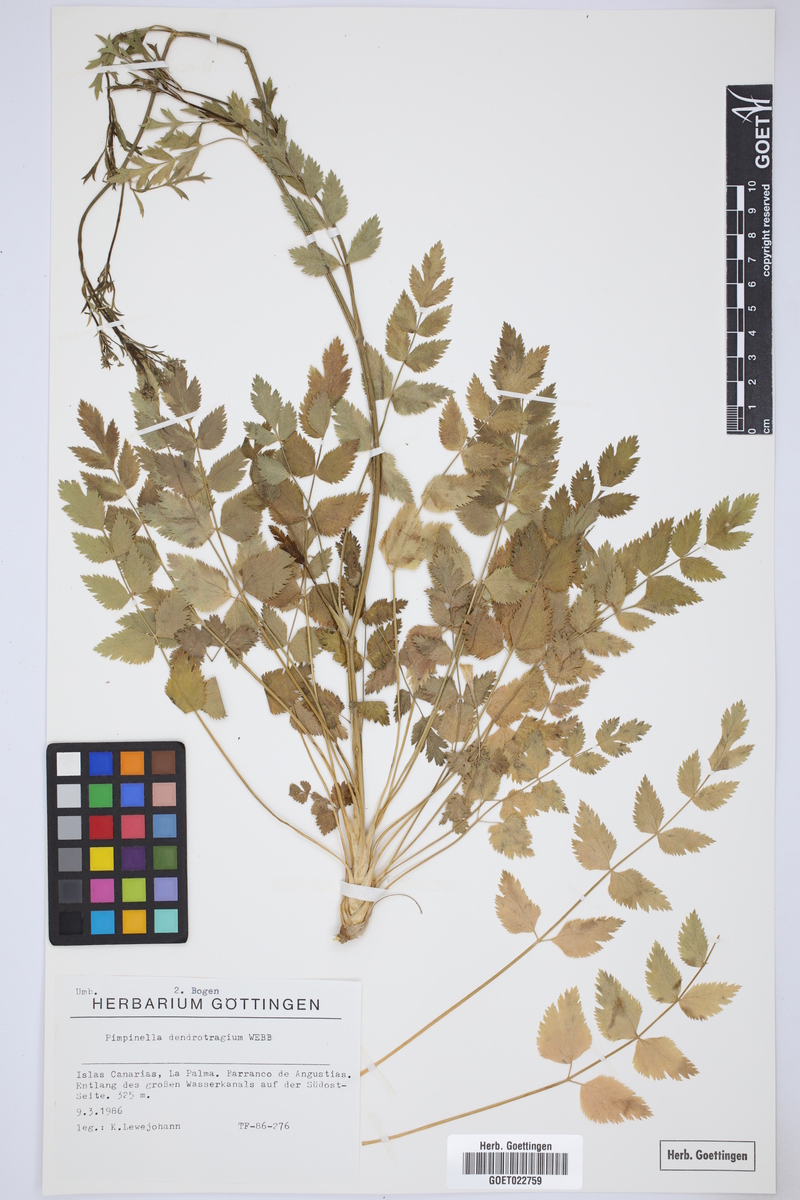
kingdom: Plantae
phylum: Tracheophyta
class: Magnoliopsida
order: Apiales
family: Apiaceae
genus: Pimpinella
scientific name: Pimpinella dendroselinum
